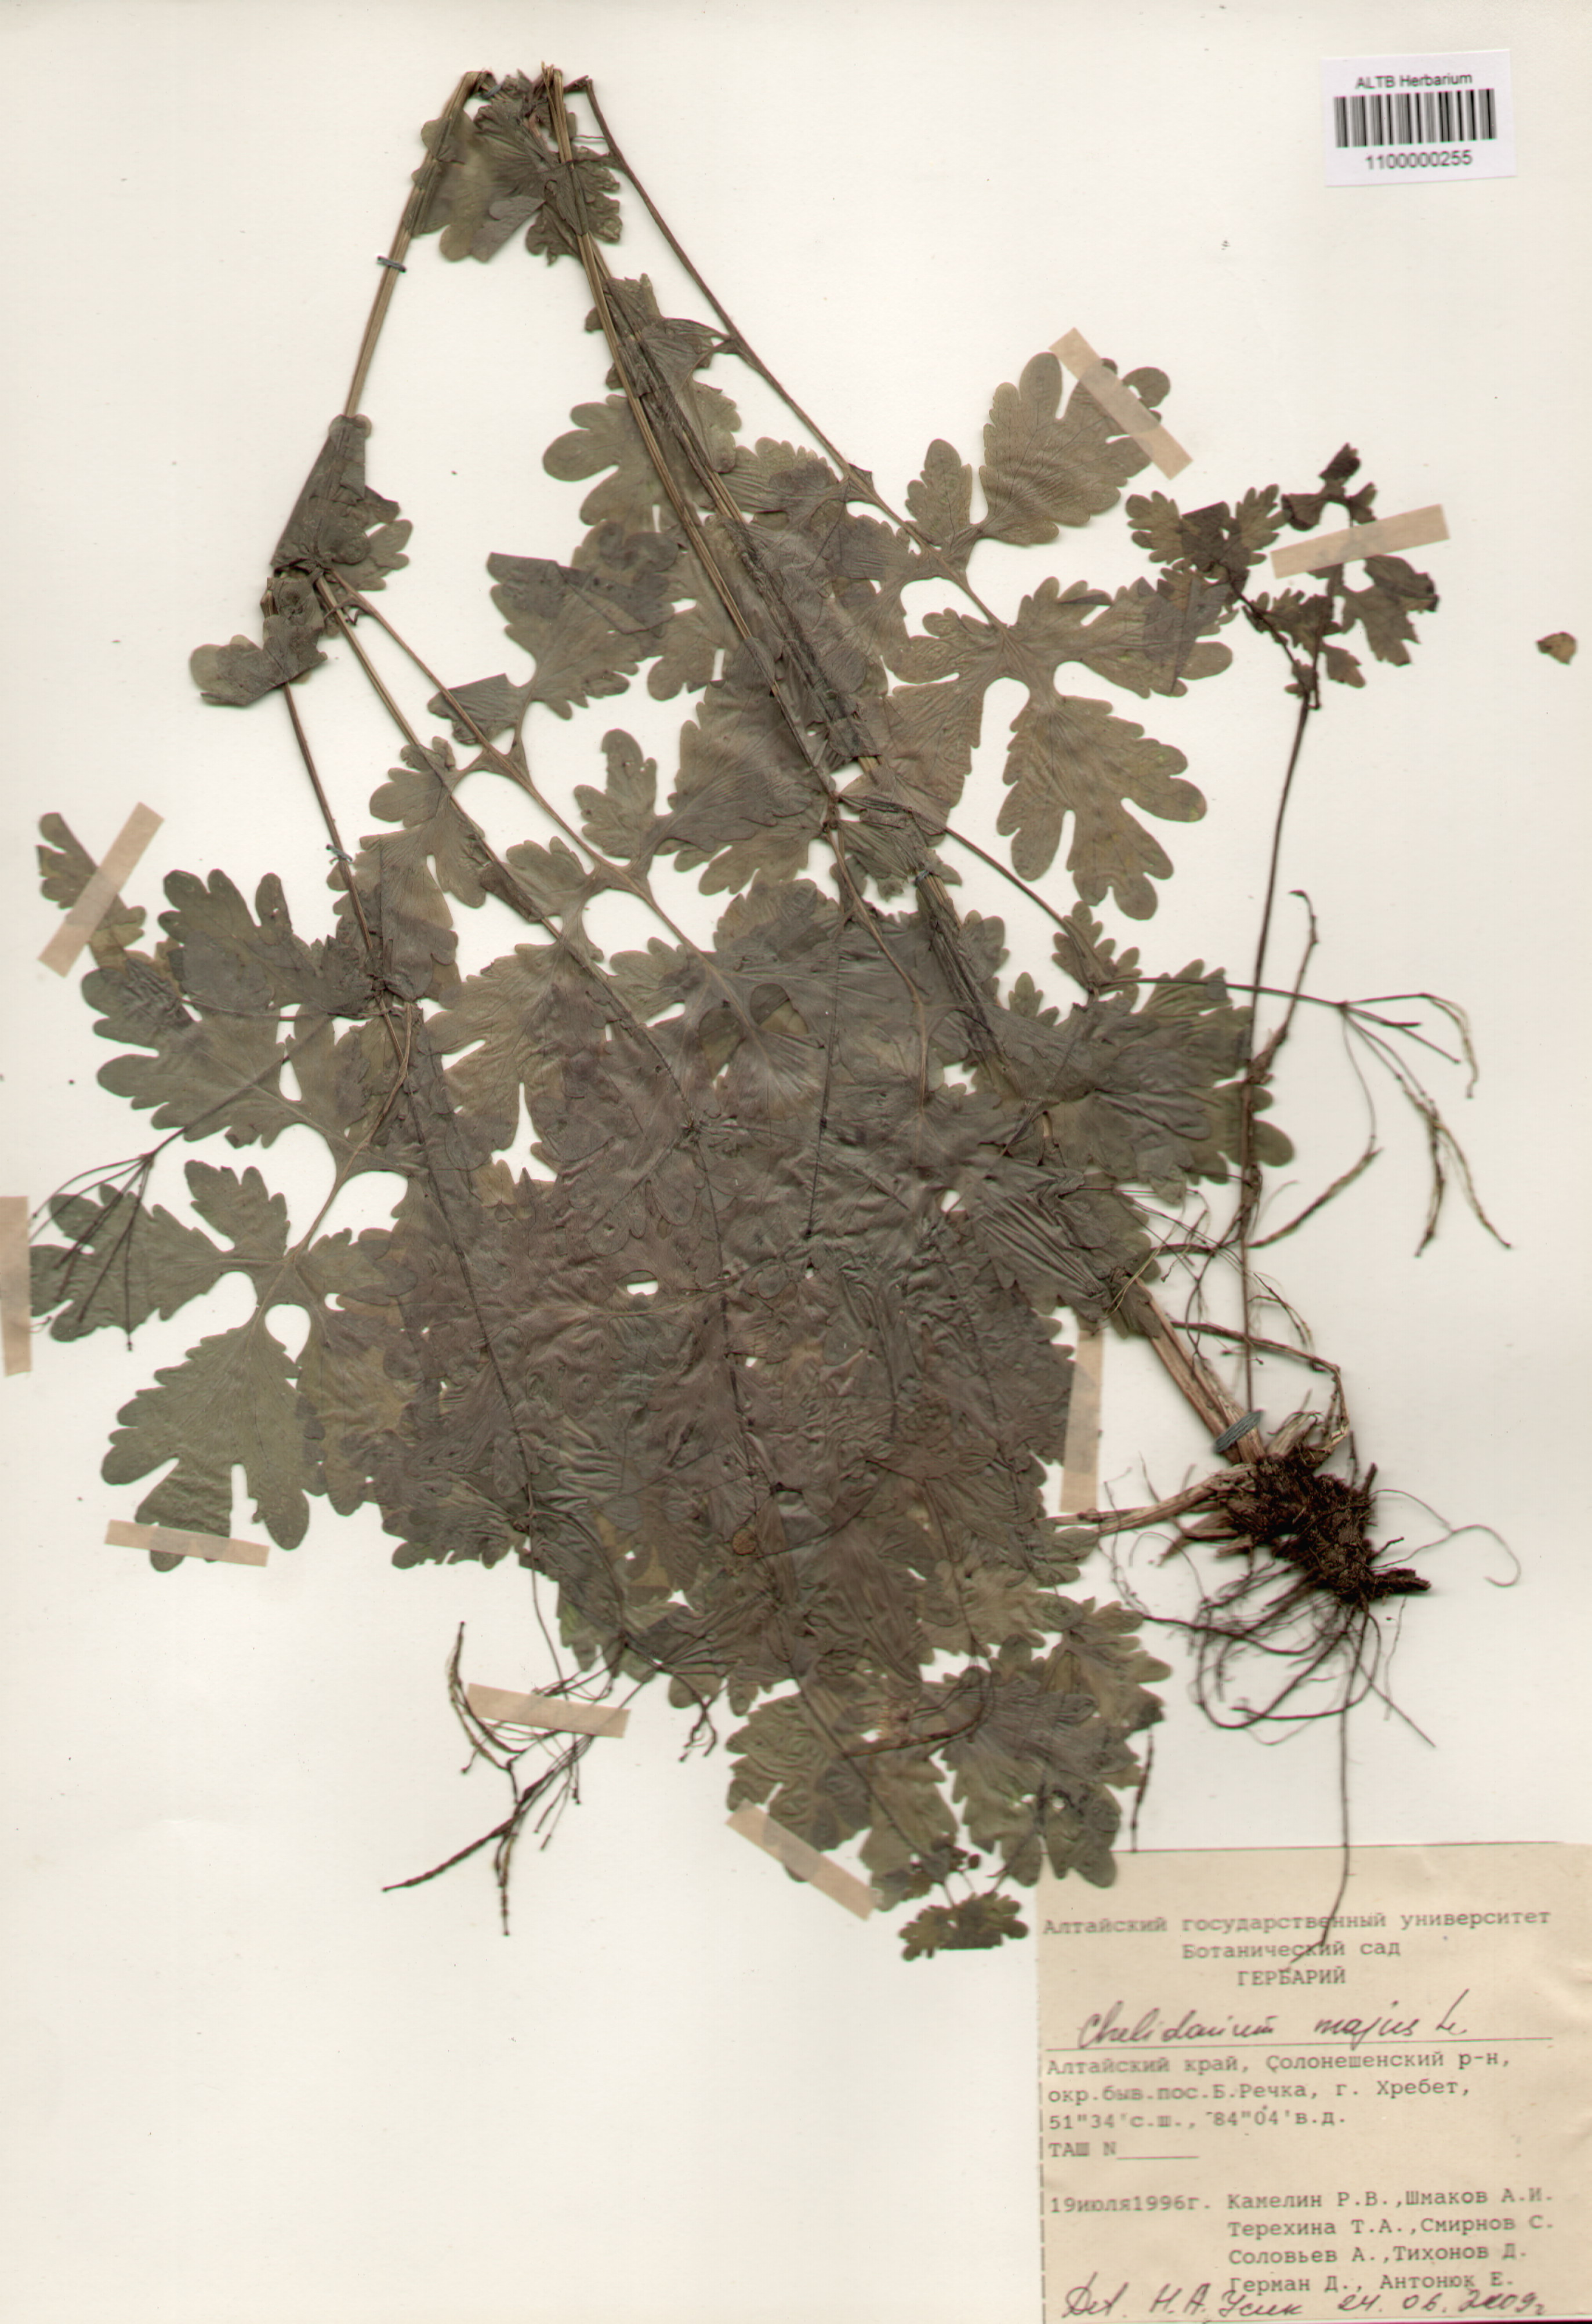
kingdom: Plantae
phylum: Tracheophyta
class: Magnoliopsida
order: Ranunculales
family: Papaveraceae
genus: Chelidonium
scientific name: Chelidonium majus
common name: Greater celandine
